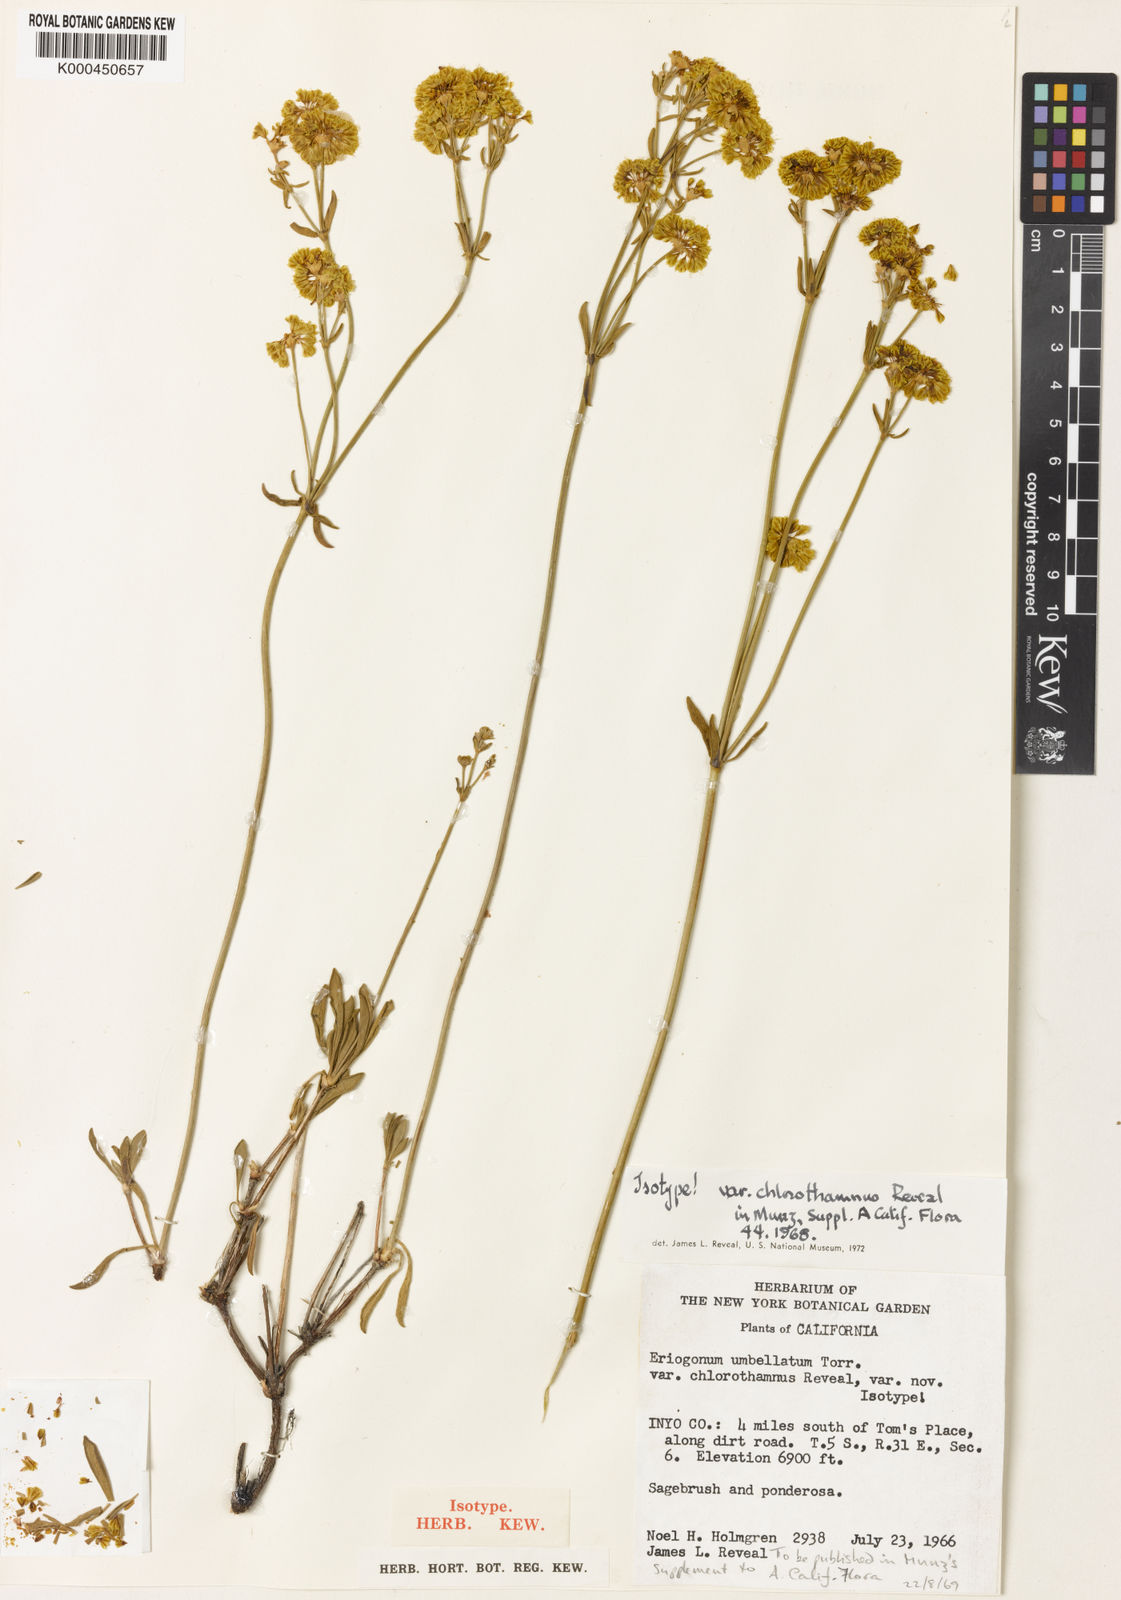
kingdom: Plantae
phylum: Tracheophyta
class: Magnoliopsida
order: Caryophyllales
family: Polygonaceae
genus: Eriogonum
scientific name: Eriogonum umbellatum
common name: Sulfur-buckwheat
